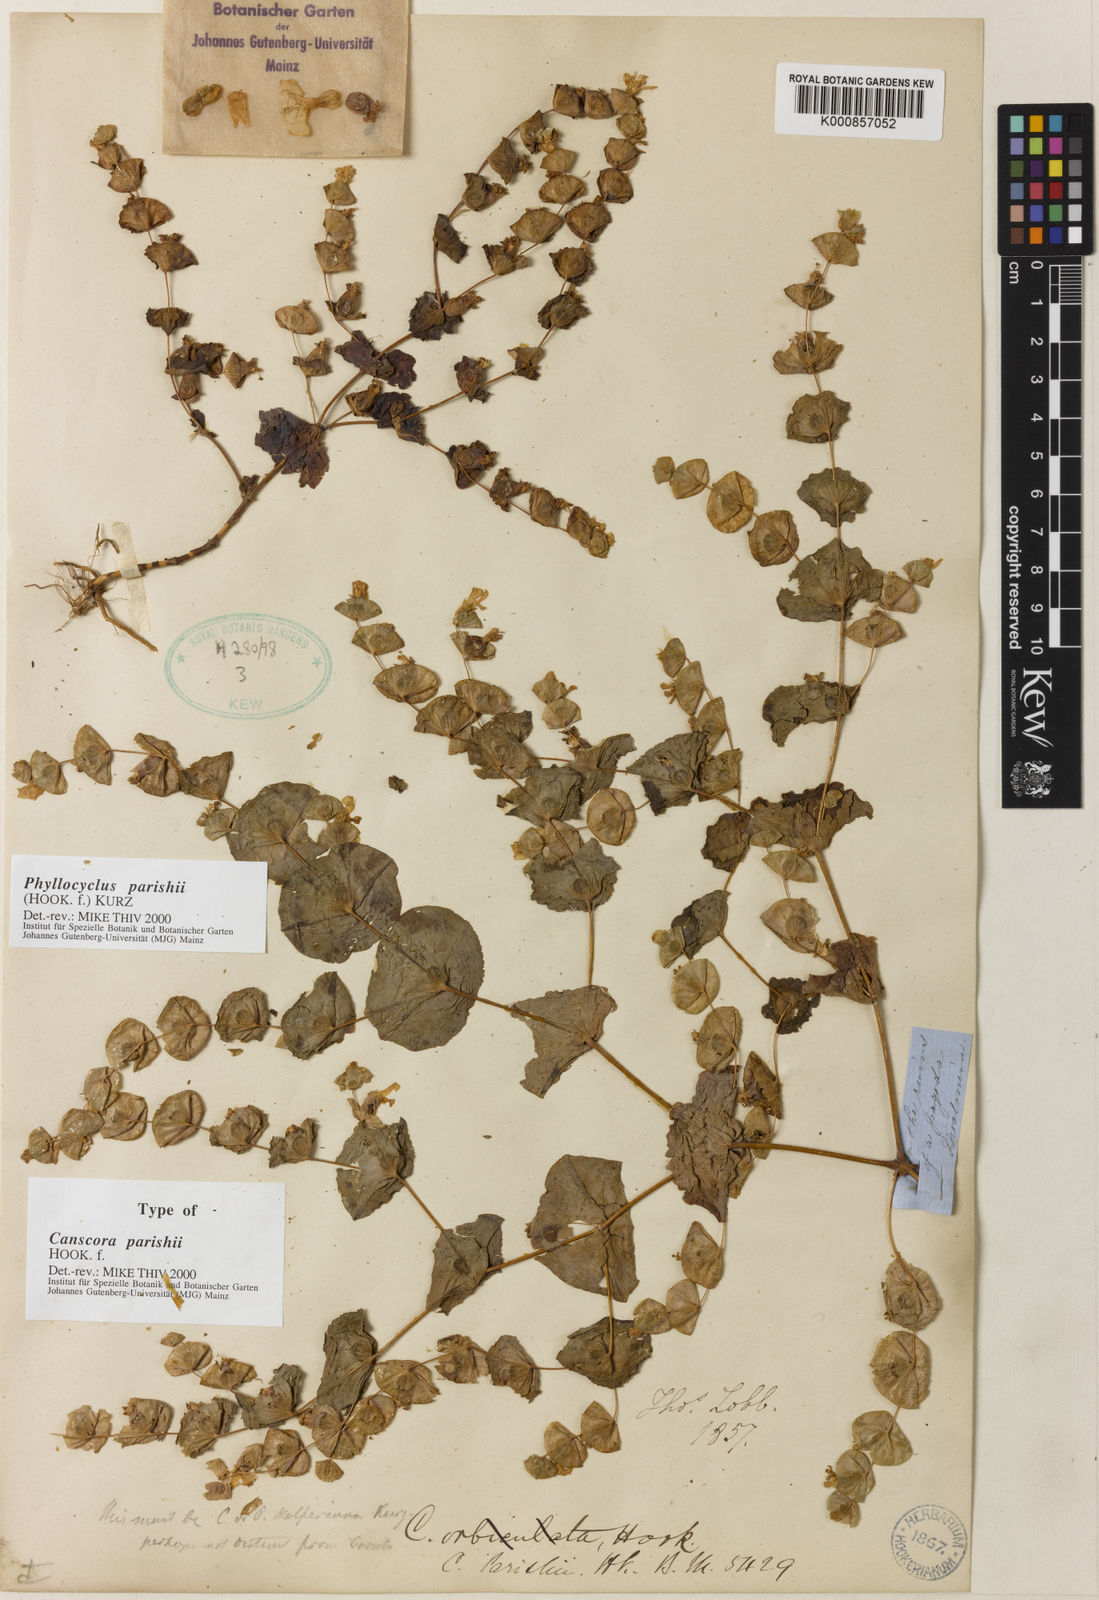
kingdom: Plantae
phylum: Tracheophyta
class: Magnoliopsida
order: Gentianales
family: Gentianaceae
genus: Phyllocyclus
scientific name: Phyllocyclus parishii
